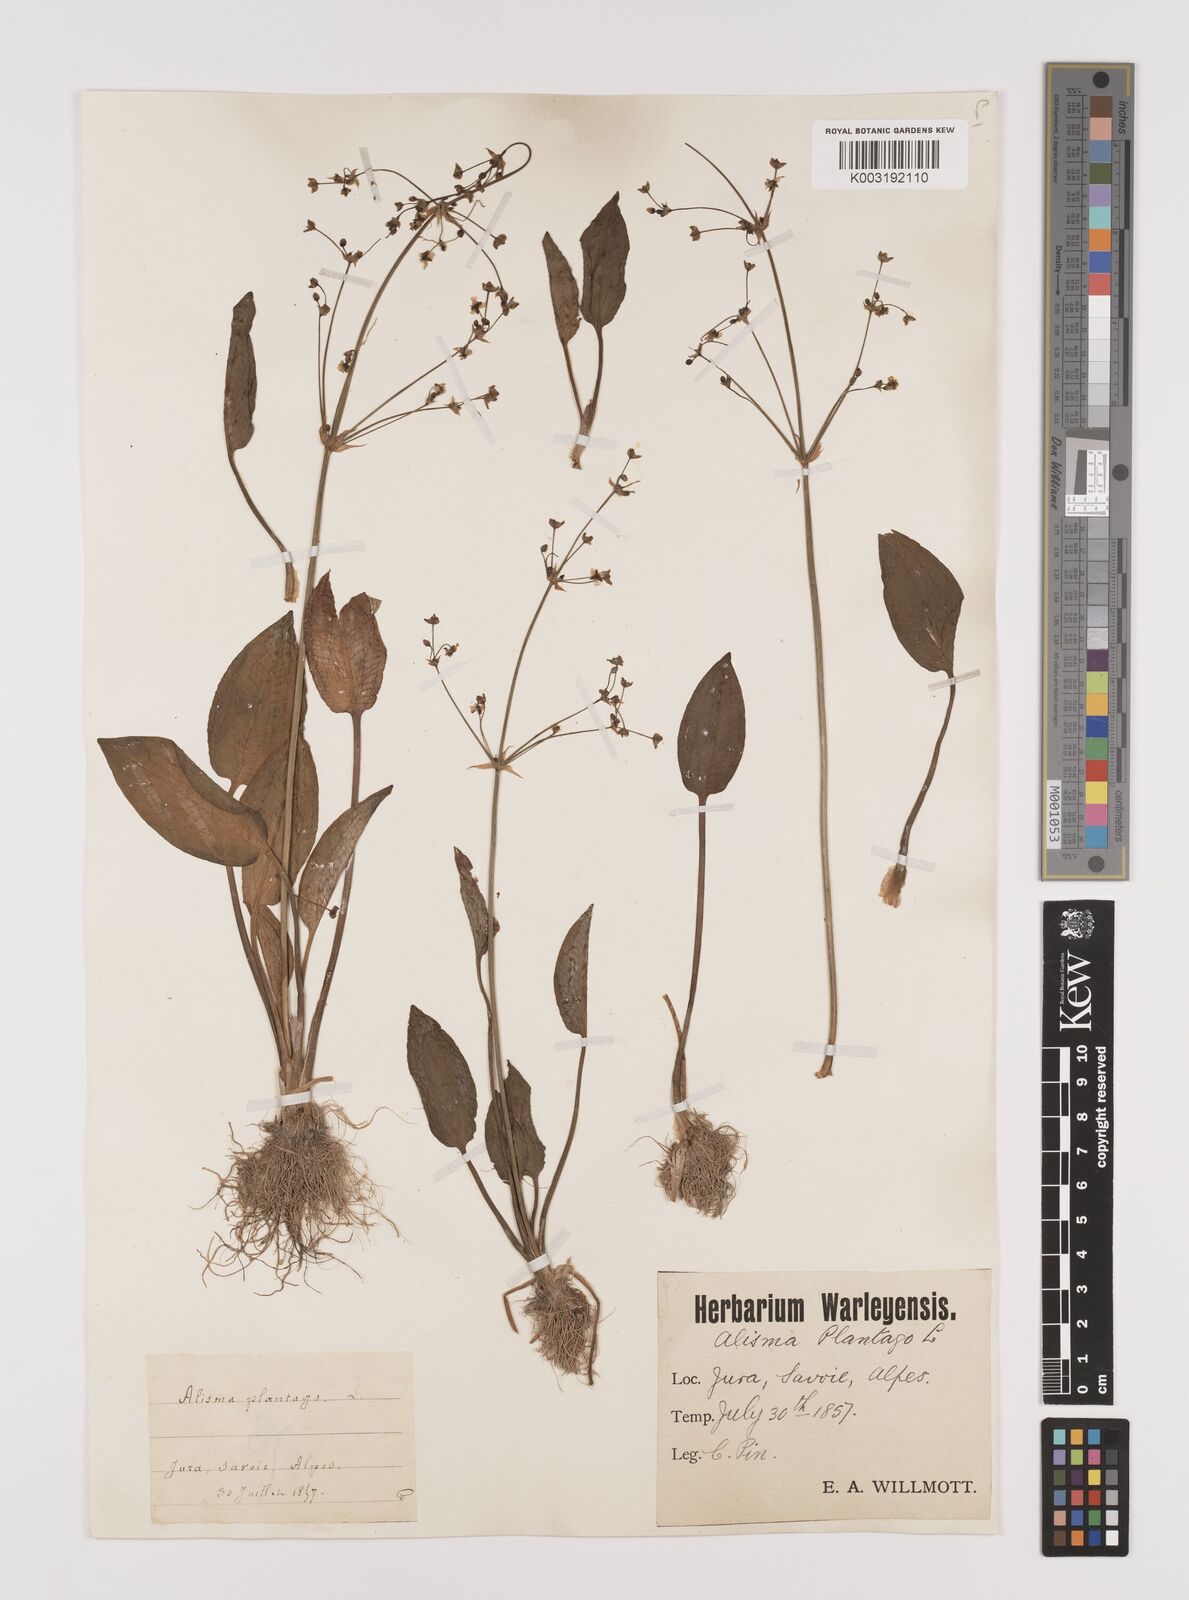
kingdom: Plantae
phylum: Tracheophyta
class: Liliopsida
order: Alismatales
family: Alismataceae
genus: Alisma
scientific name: Alisma plantago-aquatica
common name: Water-plantain
